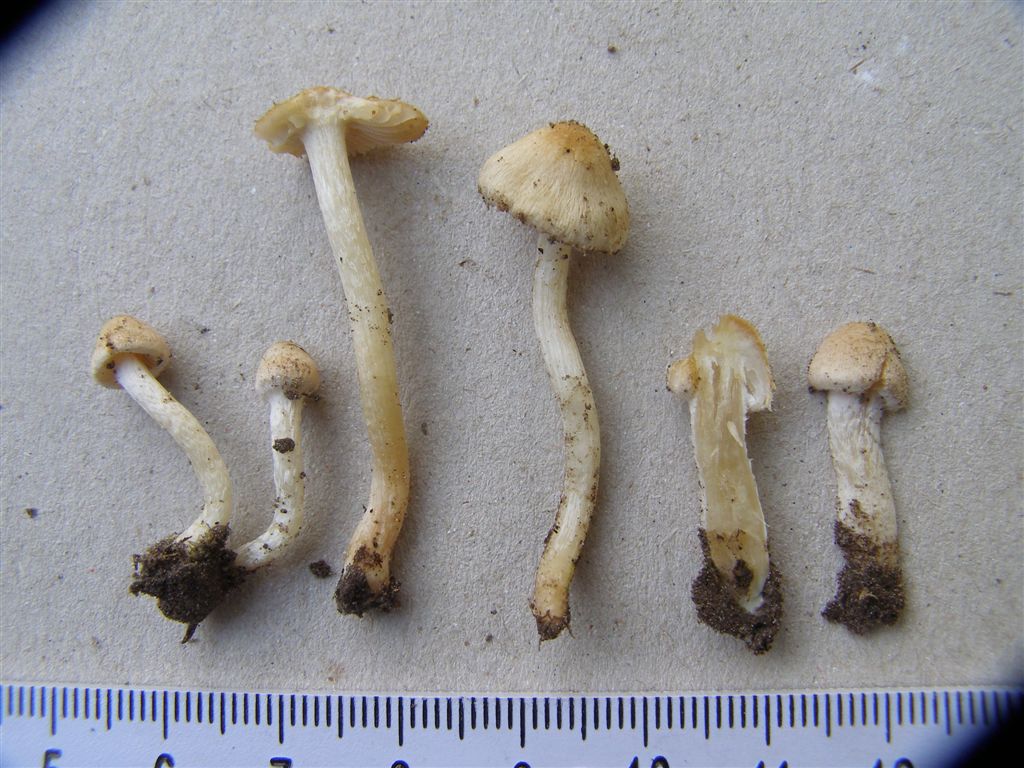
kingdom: Fungi
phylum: Basidiomycota
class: Agaricomycetes
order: Agaricales
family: Inocybaceae
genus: Inocybe
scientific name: Inocybe albovelutipes
